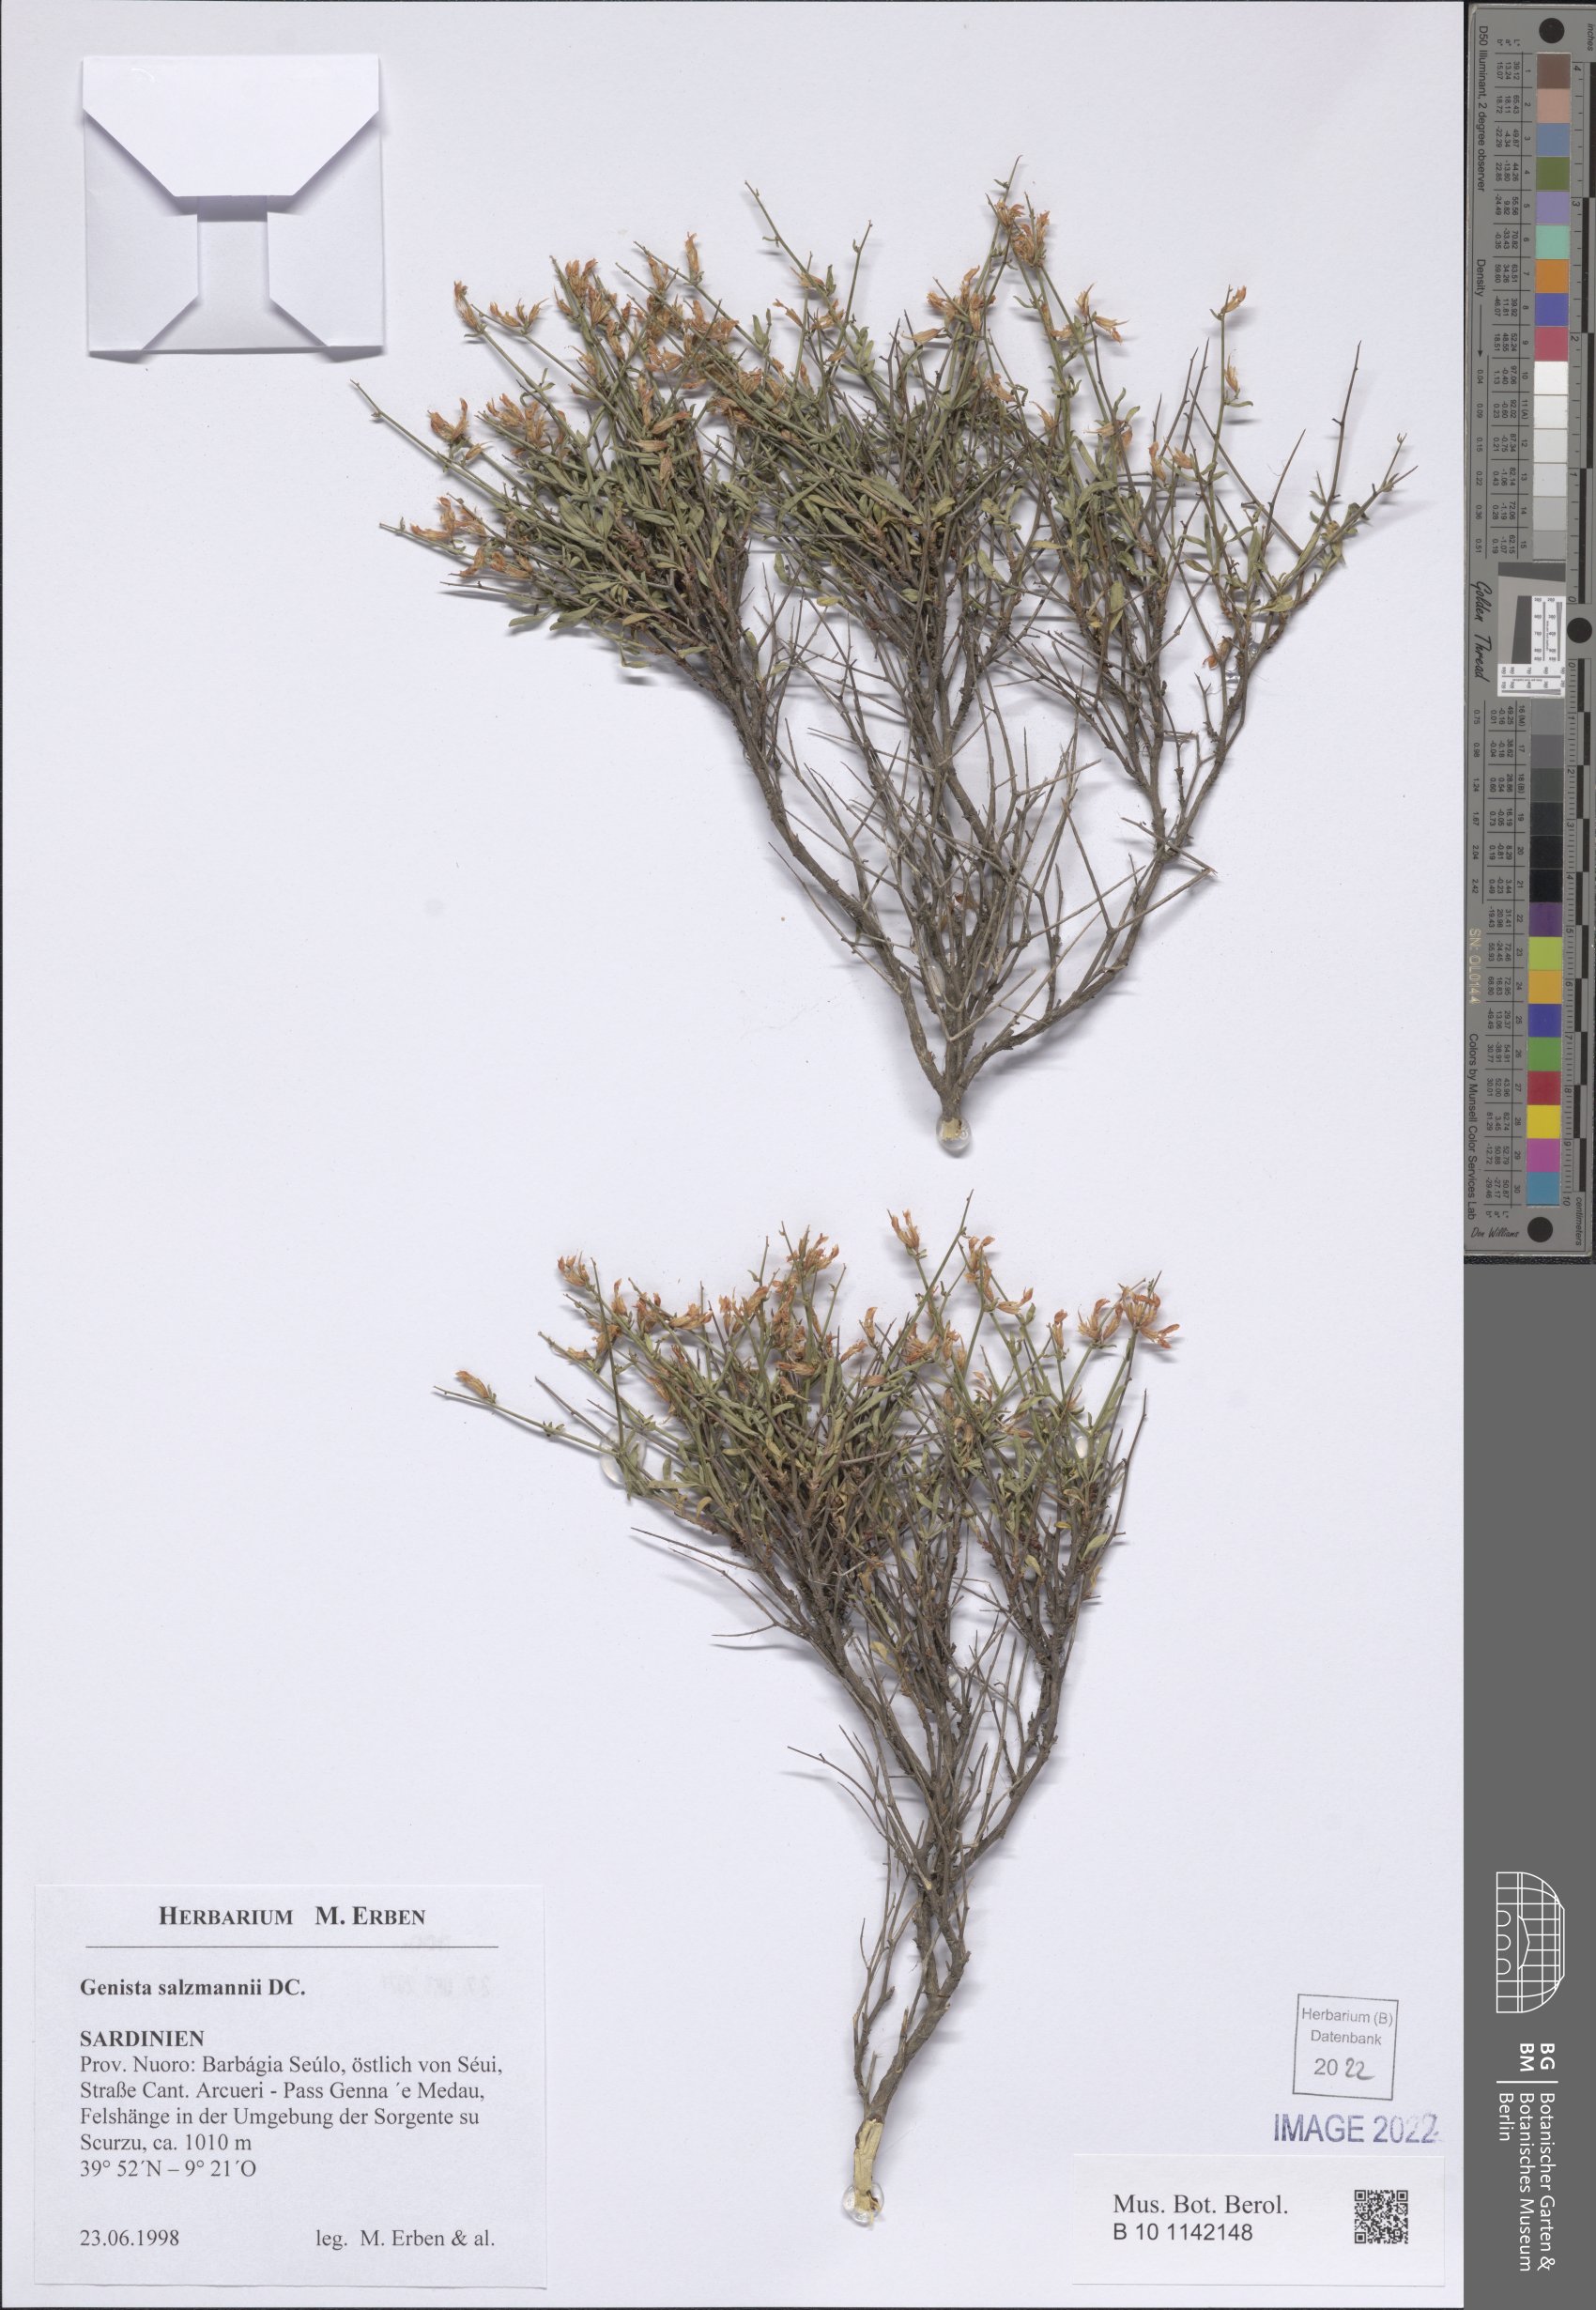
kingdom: Plantae
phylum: Tracheophyta
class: Magnoliopsida
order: Fabales
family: Fabaceae
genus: Genista
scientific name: Genista salzmannii
